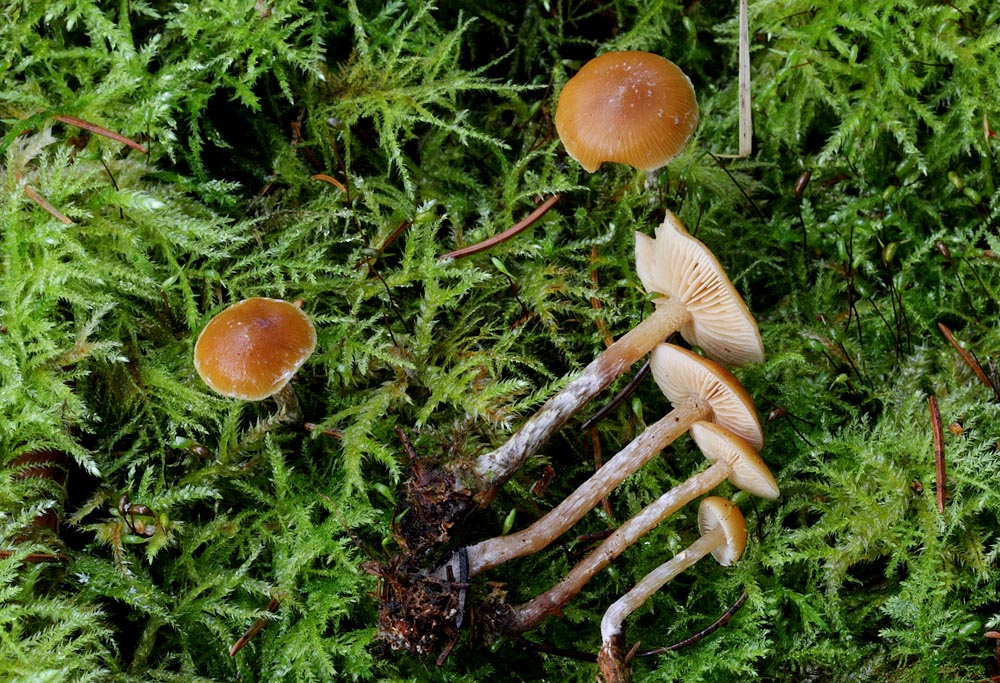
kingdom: Fungi
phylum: Basidiomycota
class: Agaricomycetes
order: Agaricales
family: Hymenogastraceae
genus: Galerina
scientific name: Galerina sideroides
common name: træflis-hjelmhat
